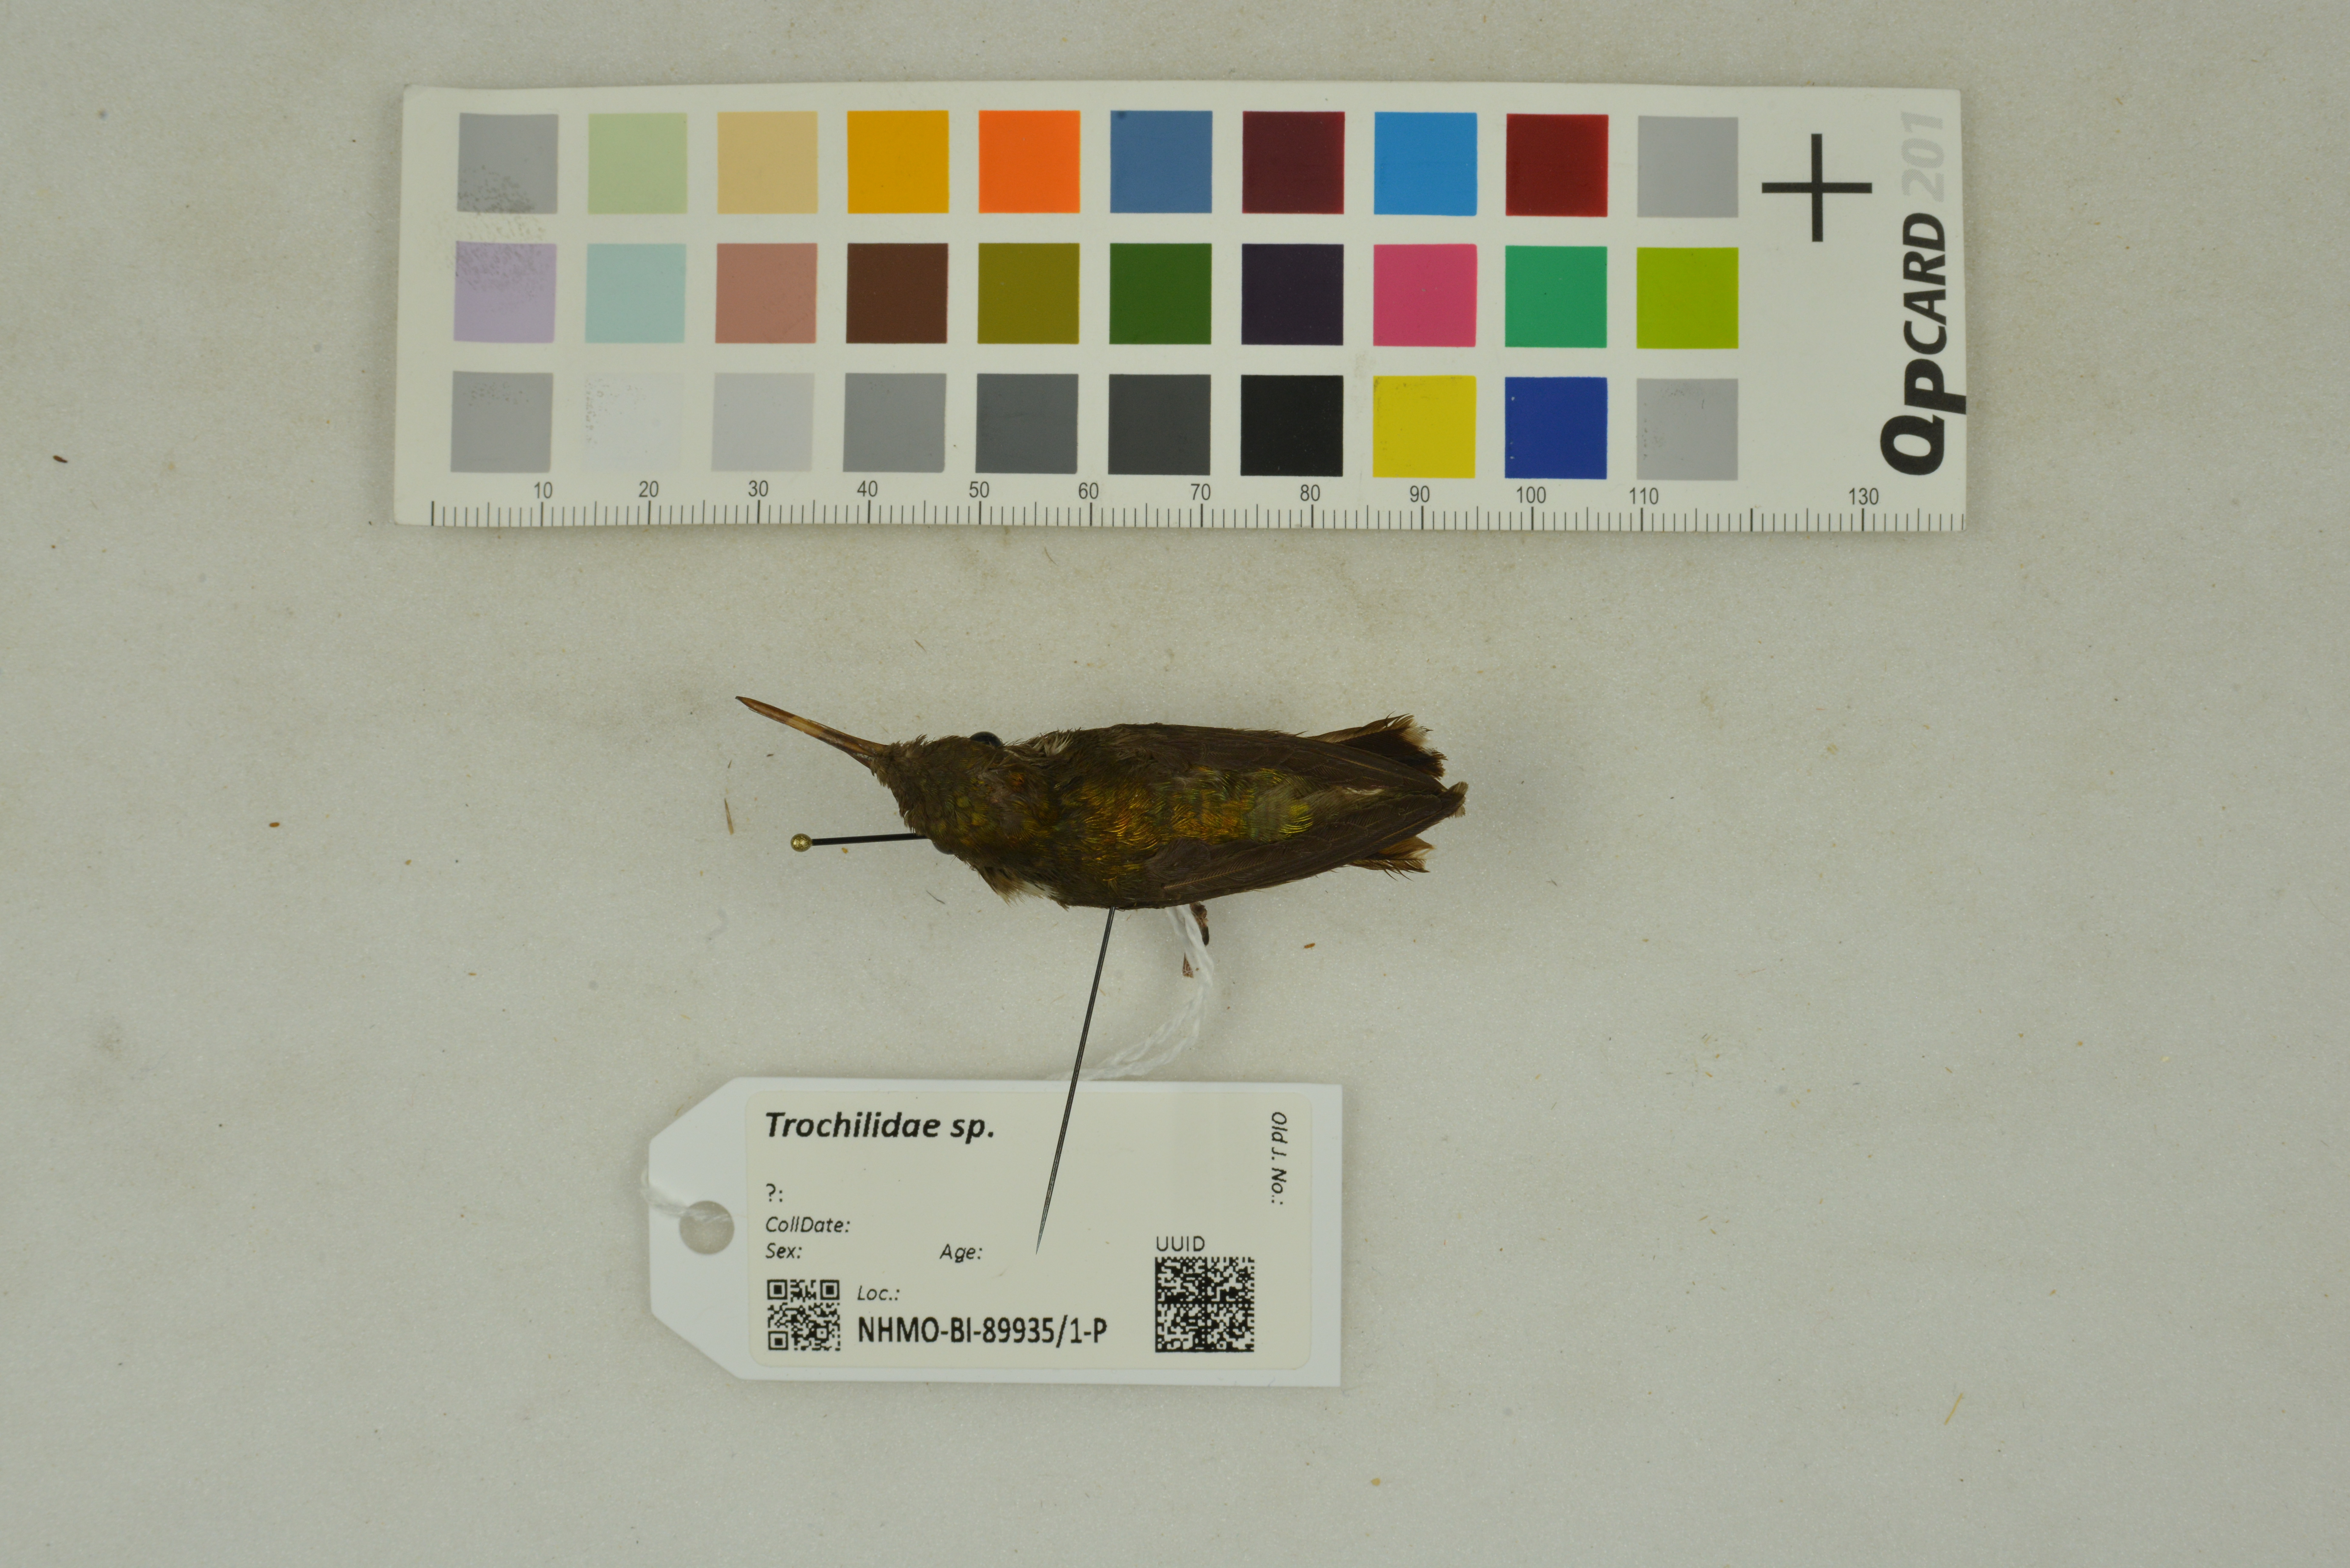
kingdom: Animalia
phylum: Chordata
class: Aves
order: Apodiformes
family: Trochilidae
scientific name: Trochilidae
